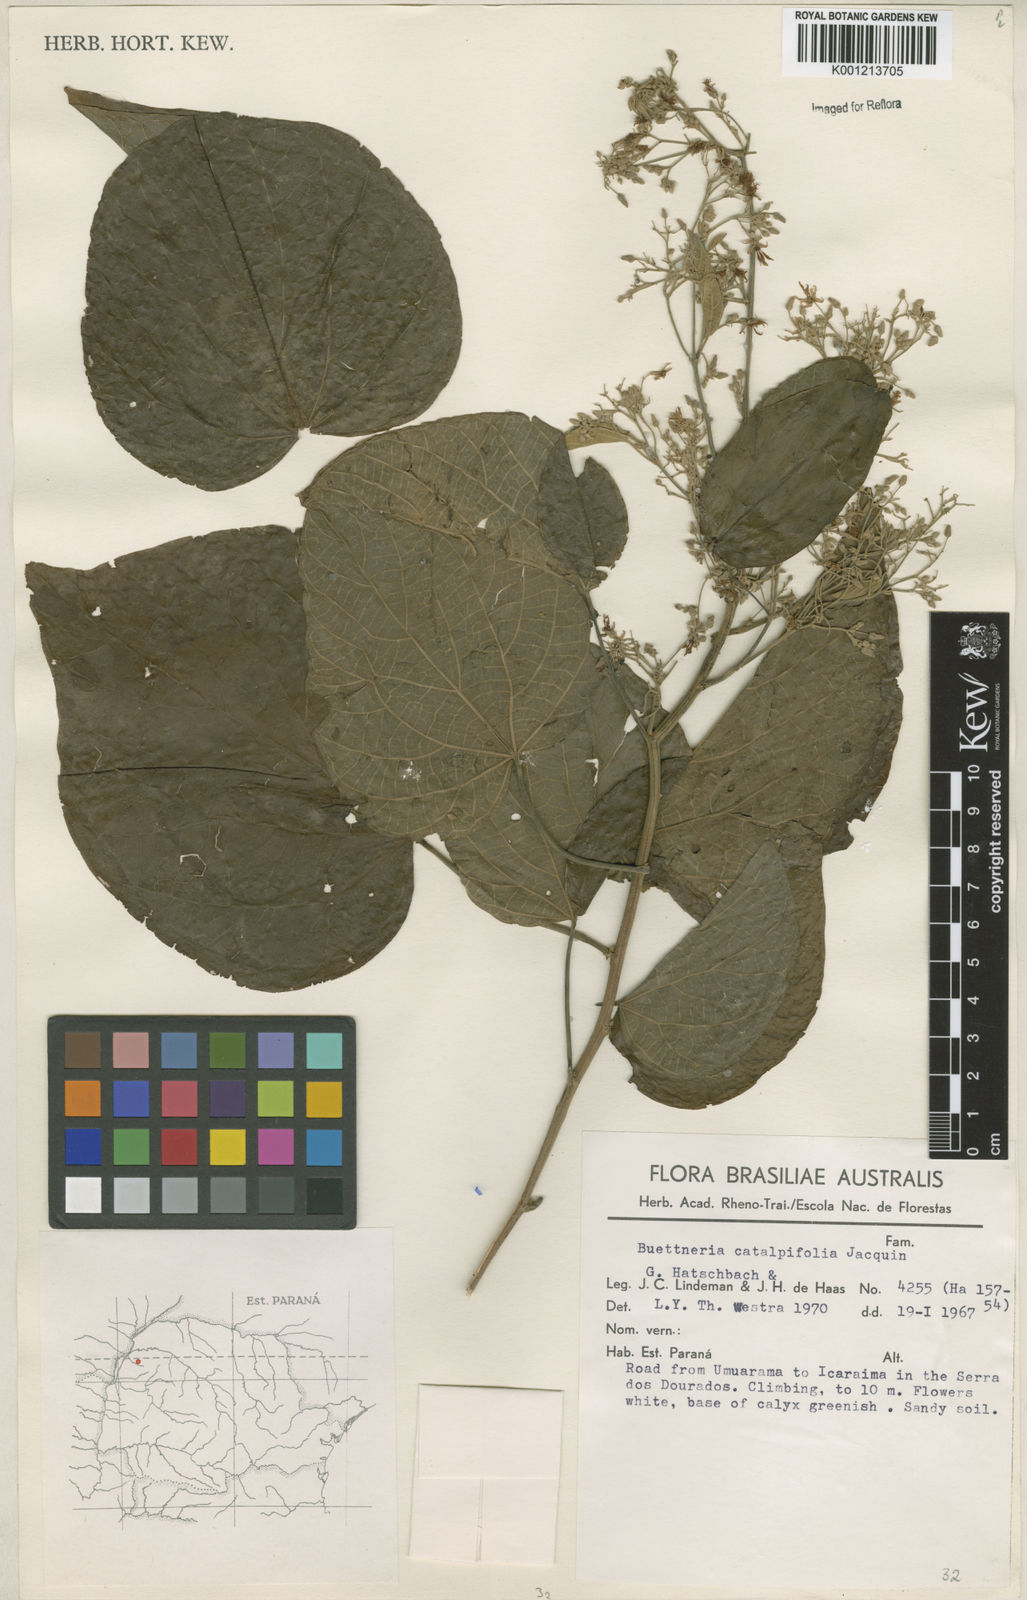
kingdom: Plantae
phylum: Tracheophyta
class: Magnoliopsida
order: Malvales
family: Malvaceae
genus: Byttneria
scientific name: Byttneria catalpifolia
